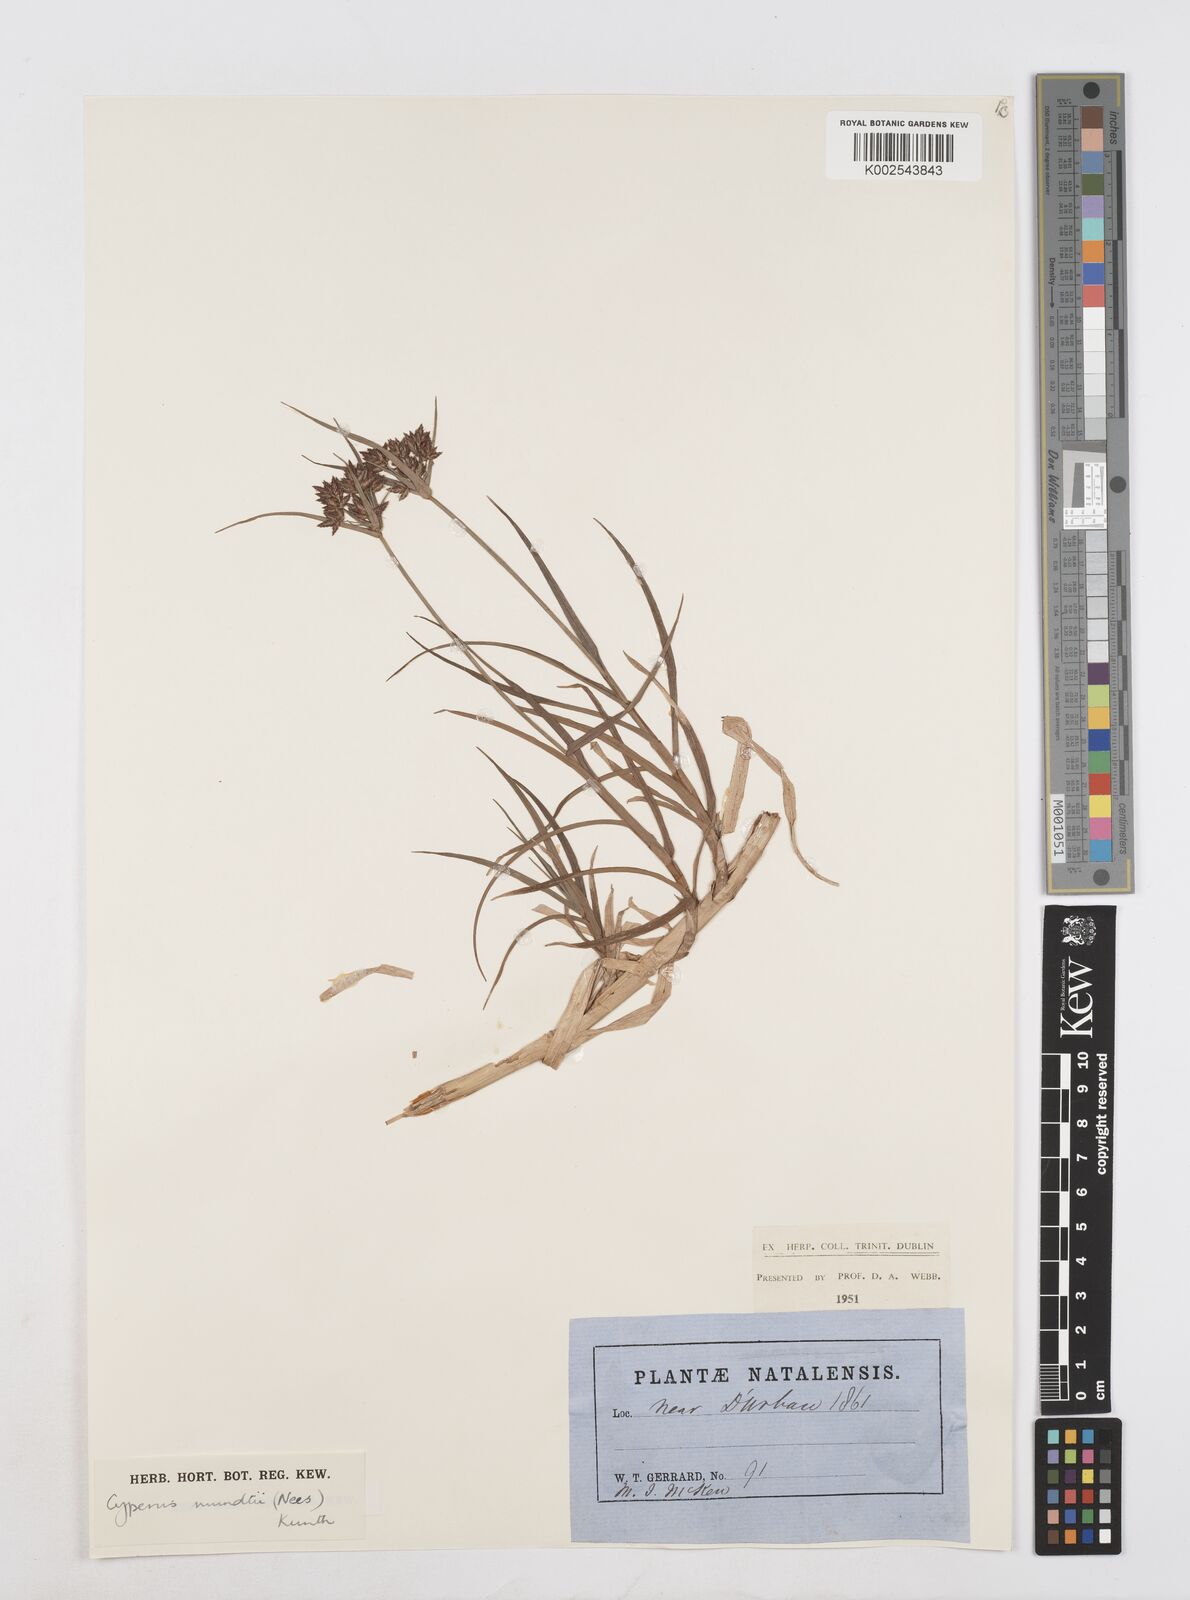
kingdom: Plantae
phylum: Tracheophyta
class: Liliopsida
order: Poales
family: Cyperaceae
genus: Cyperus
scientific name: Cyperus mundii
